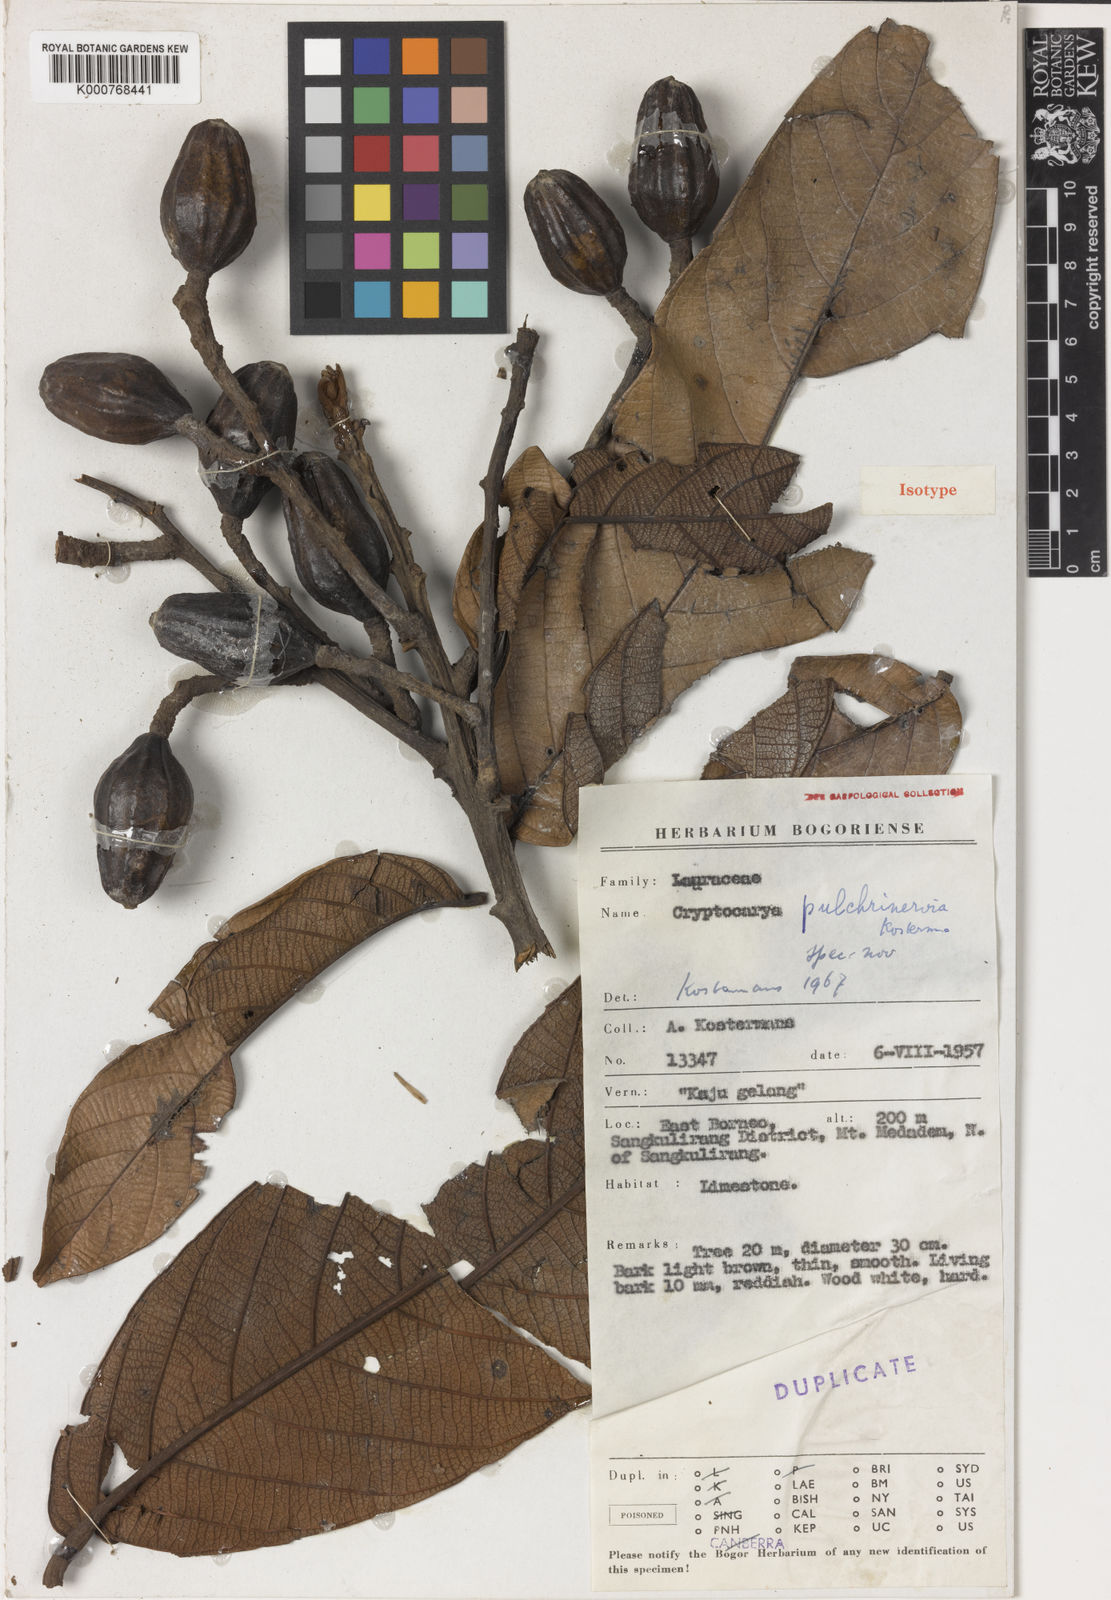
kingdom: Plantae
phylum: Tracheophyta
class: Magnoliopsida
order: Laurales
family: Lauraceae
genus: Cryptocarya
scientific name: Cryptocarya pulchrinervia
